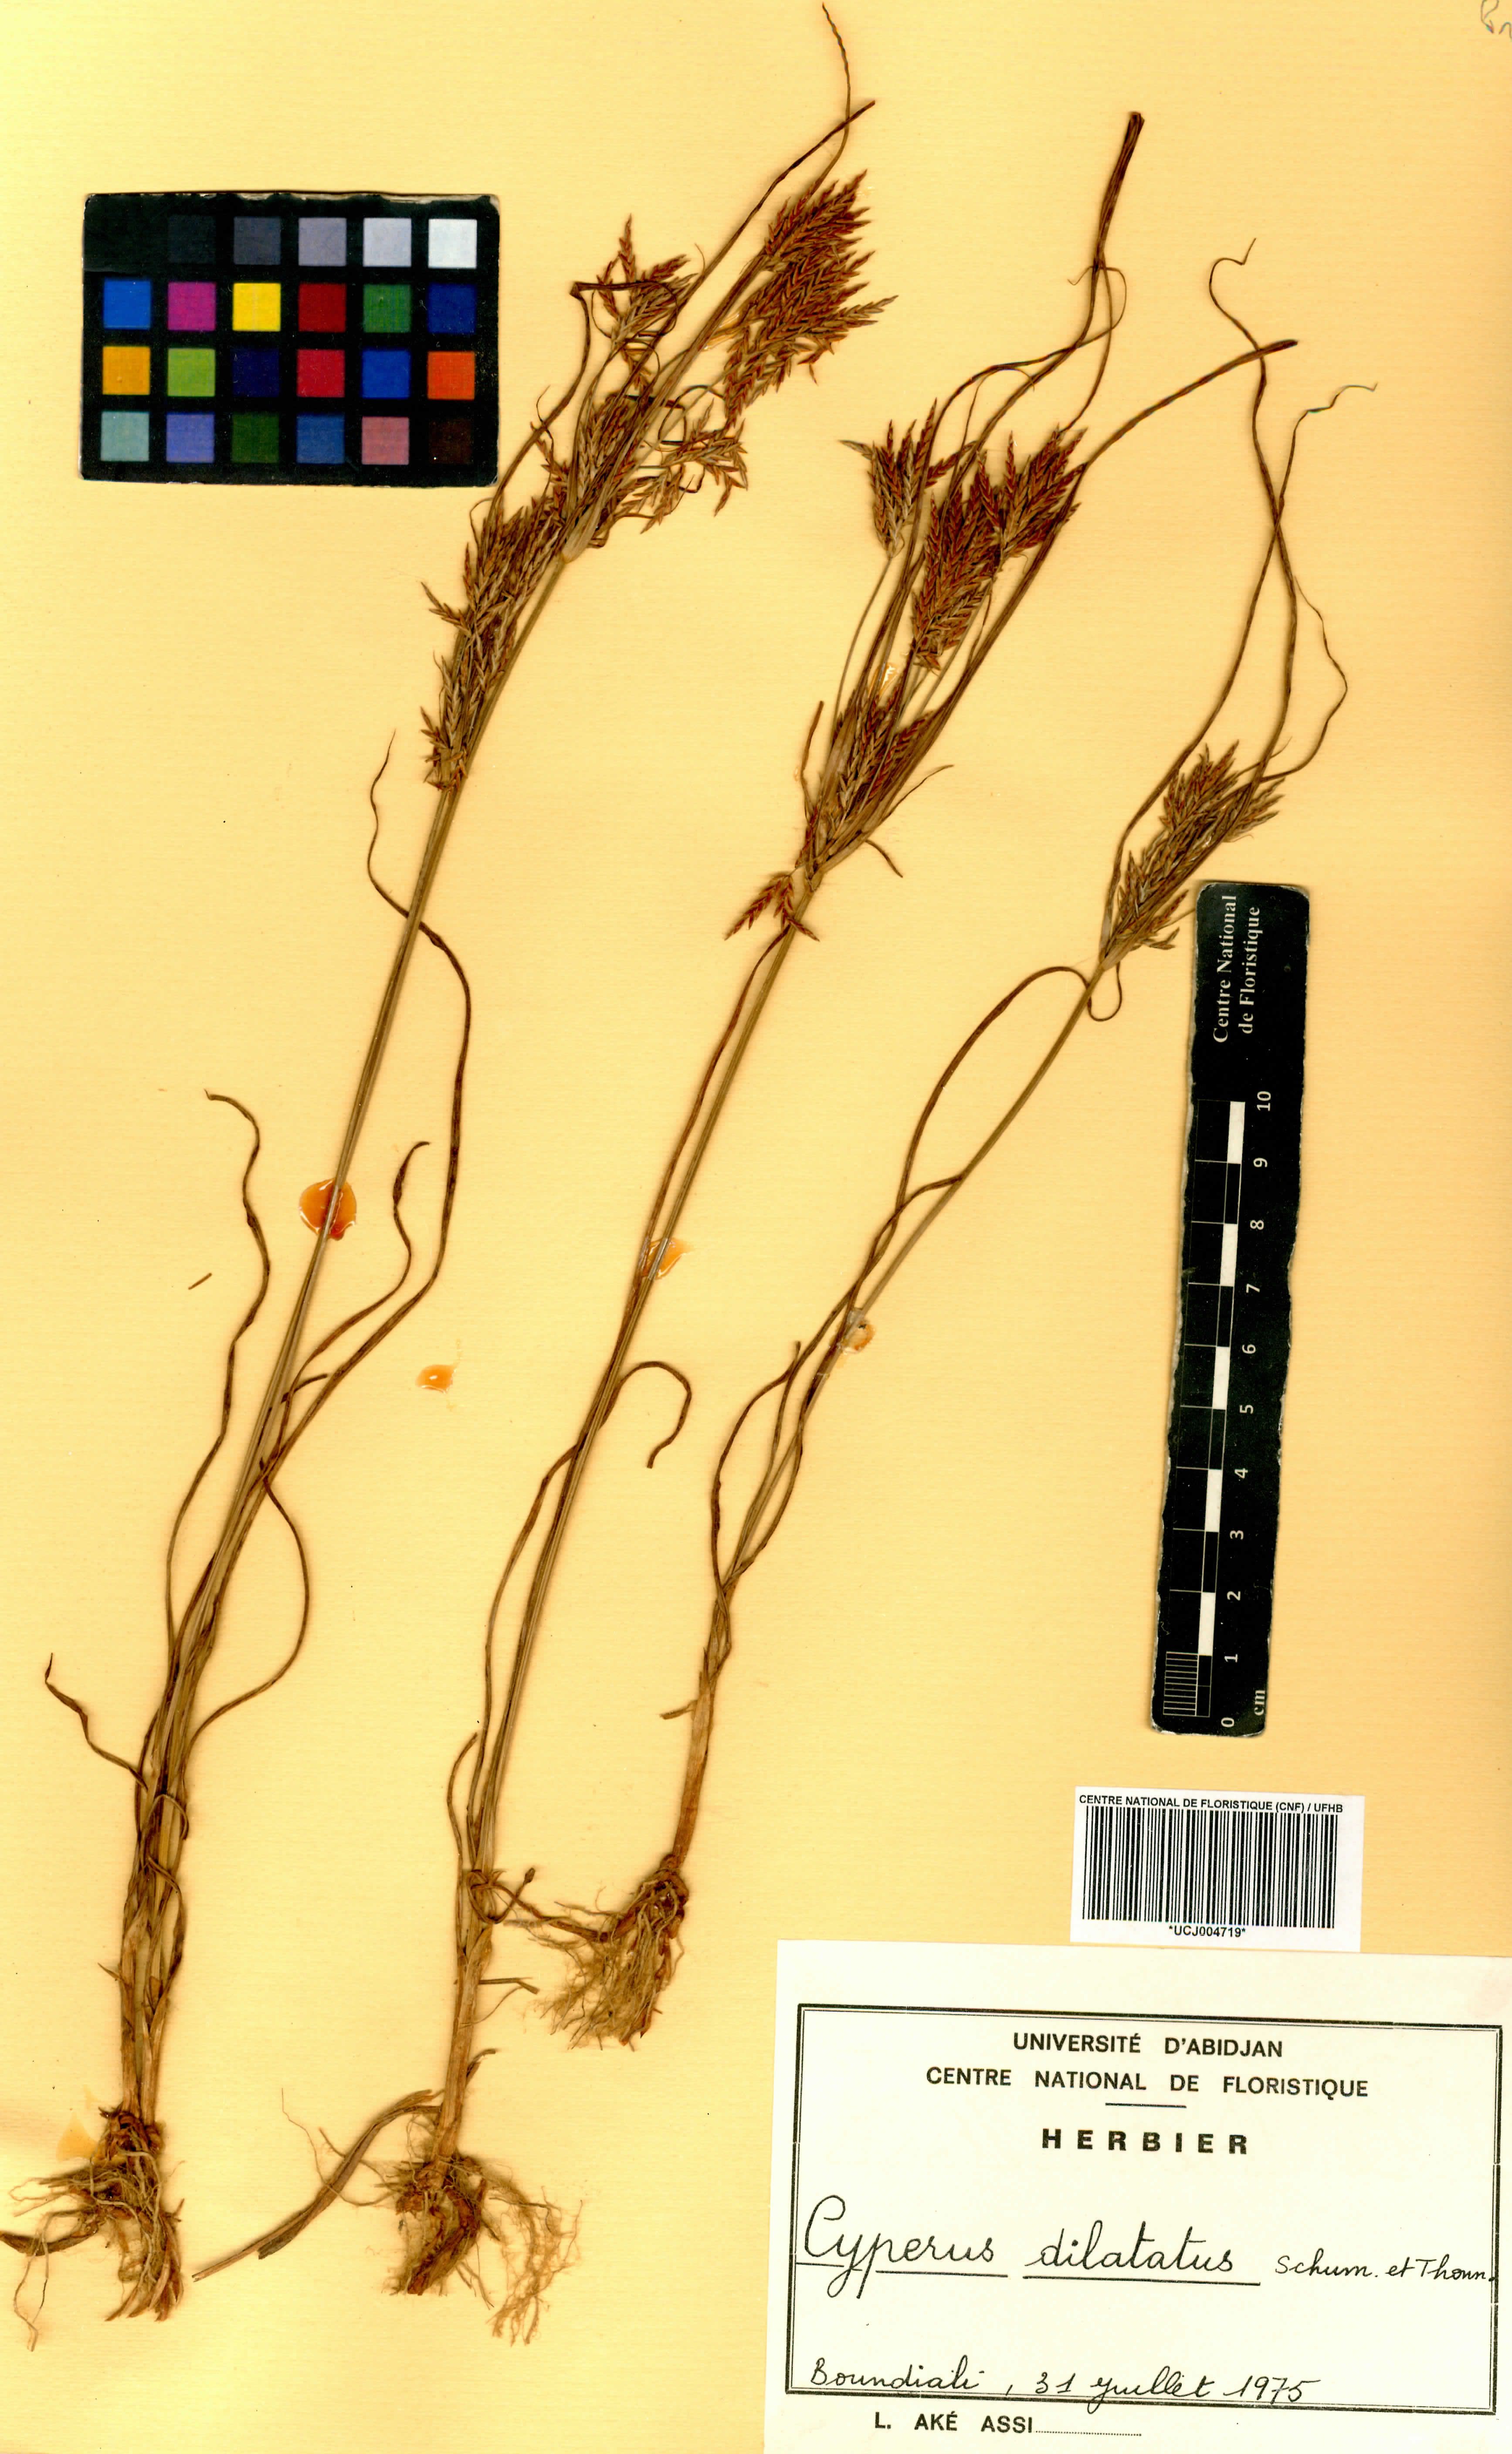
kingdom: Plantae
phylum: Tracheophyta
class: Liliopsida
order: Poales
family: Cyperaceae
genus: Cyperus
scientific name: Cyperus dilatatus
